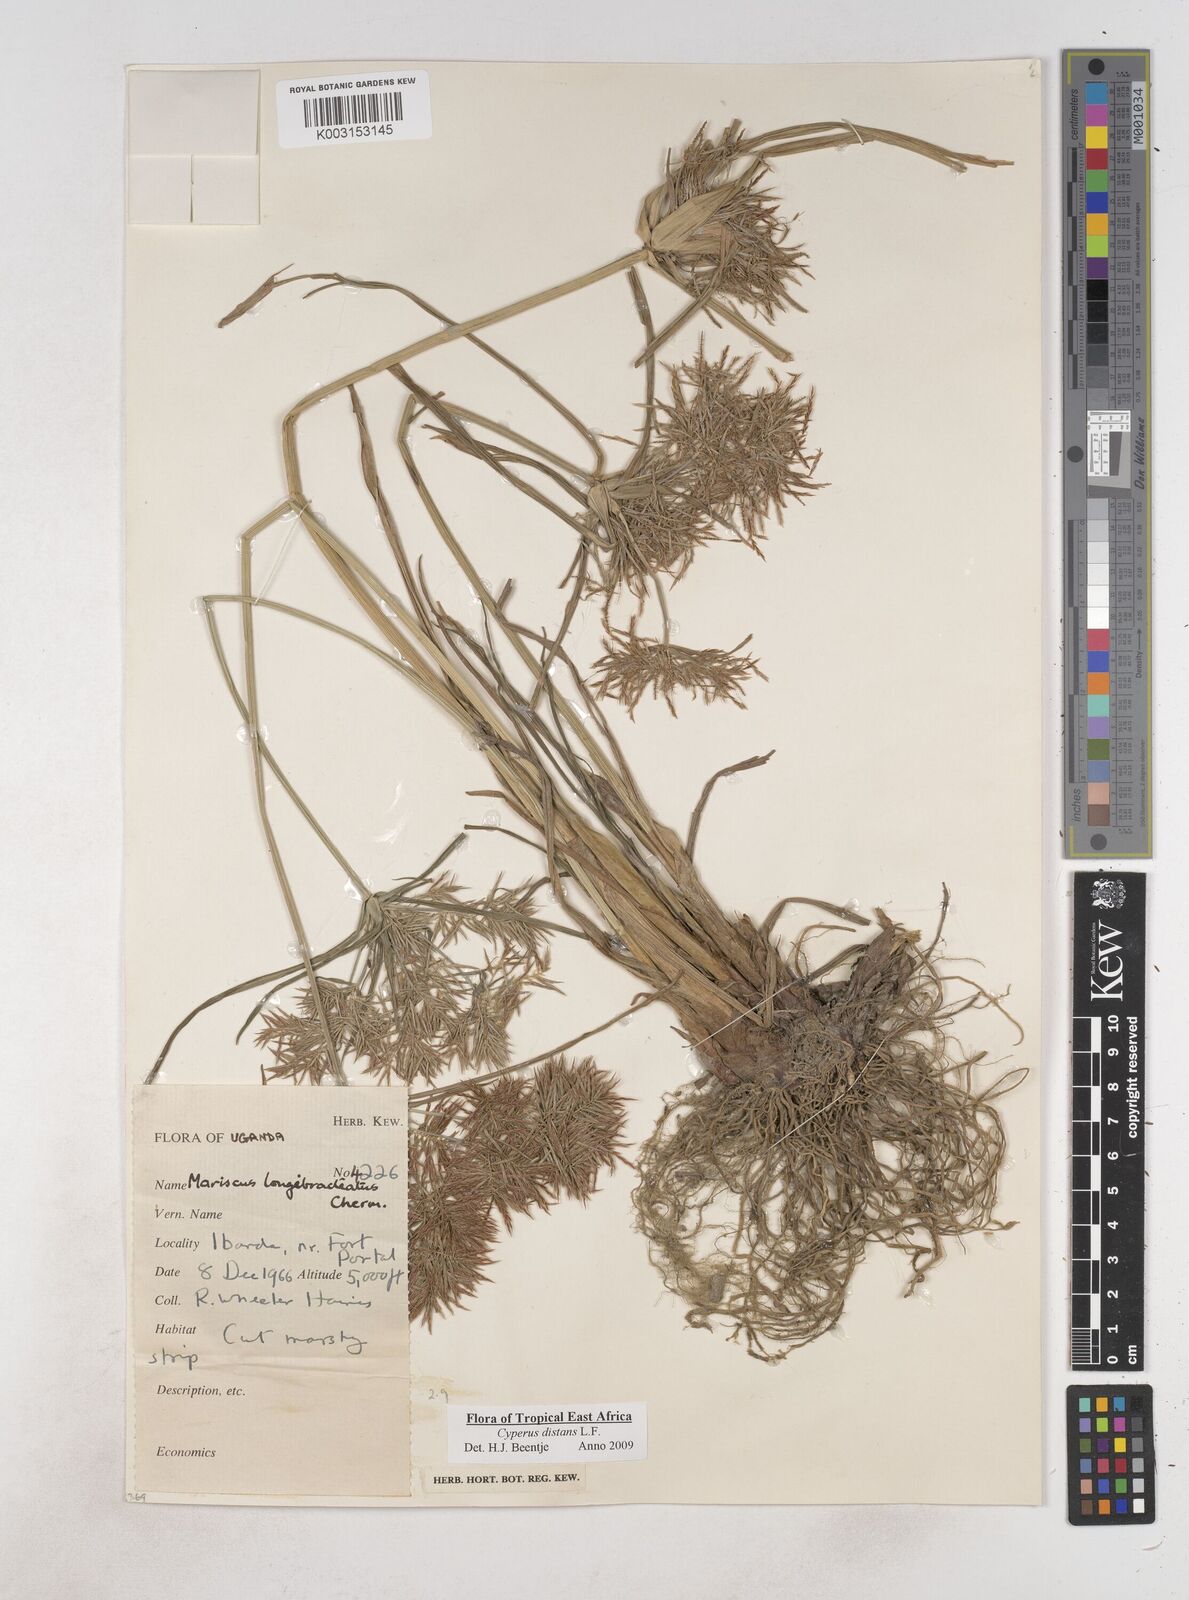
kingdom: Plantae
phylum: Tracheophyta
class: Liliopsida
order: Poales
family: Cyperaceae
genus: Cyperus
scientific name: Cyperus distans
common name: Slender cyperus
